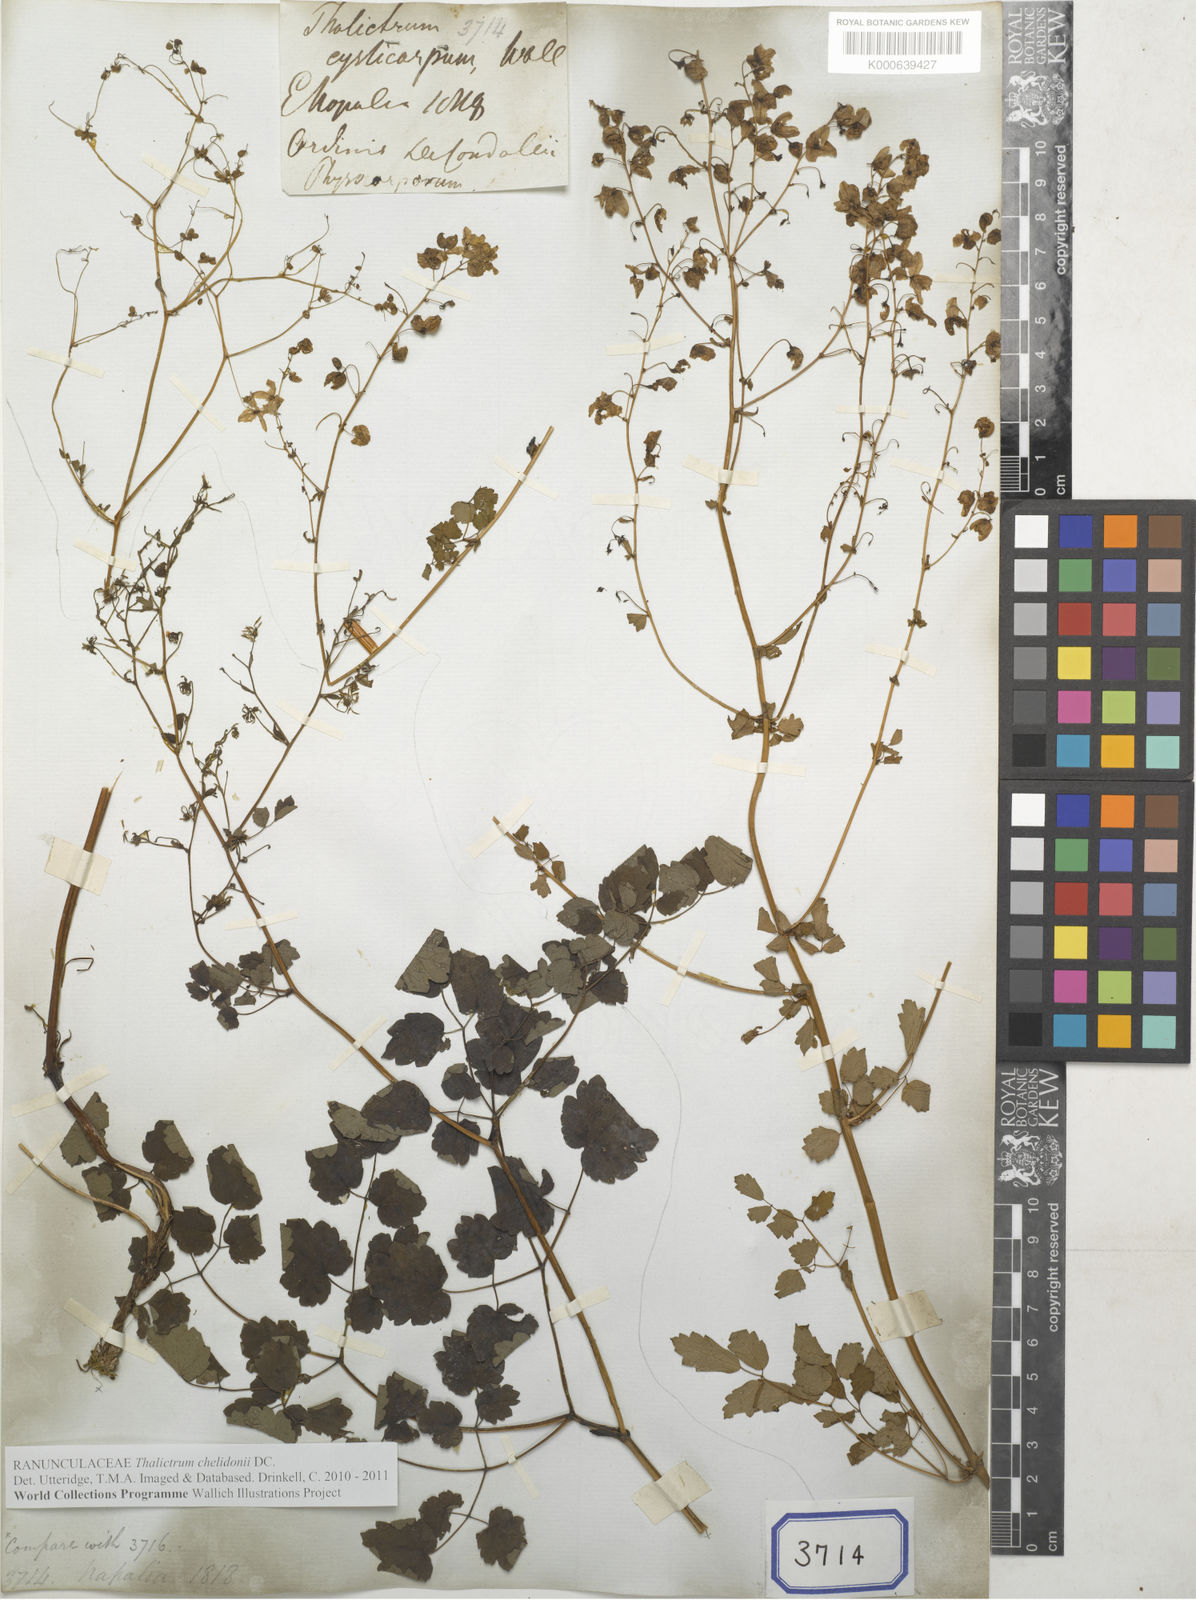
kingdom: Plantae
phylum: Tracheophyta
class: Magnoliopsida
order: Ranunculales
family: Ranunculaceae
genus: Thalictrum
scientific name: Thalictrum chelidonii
